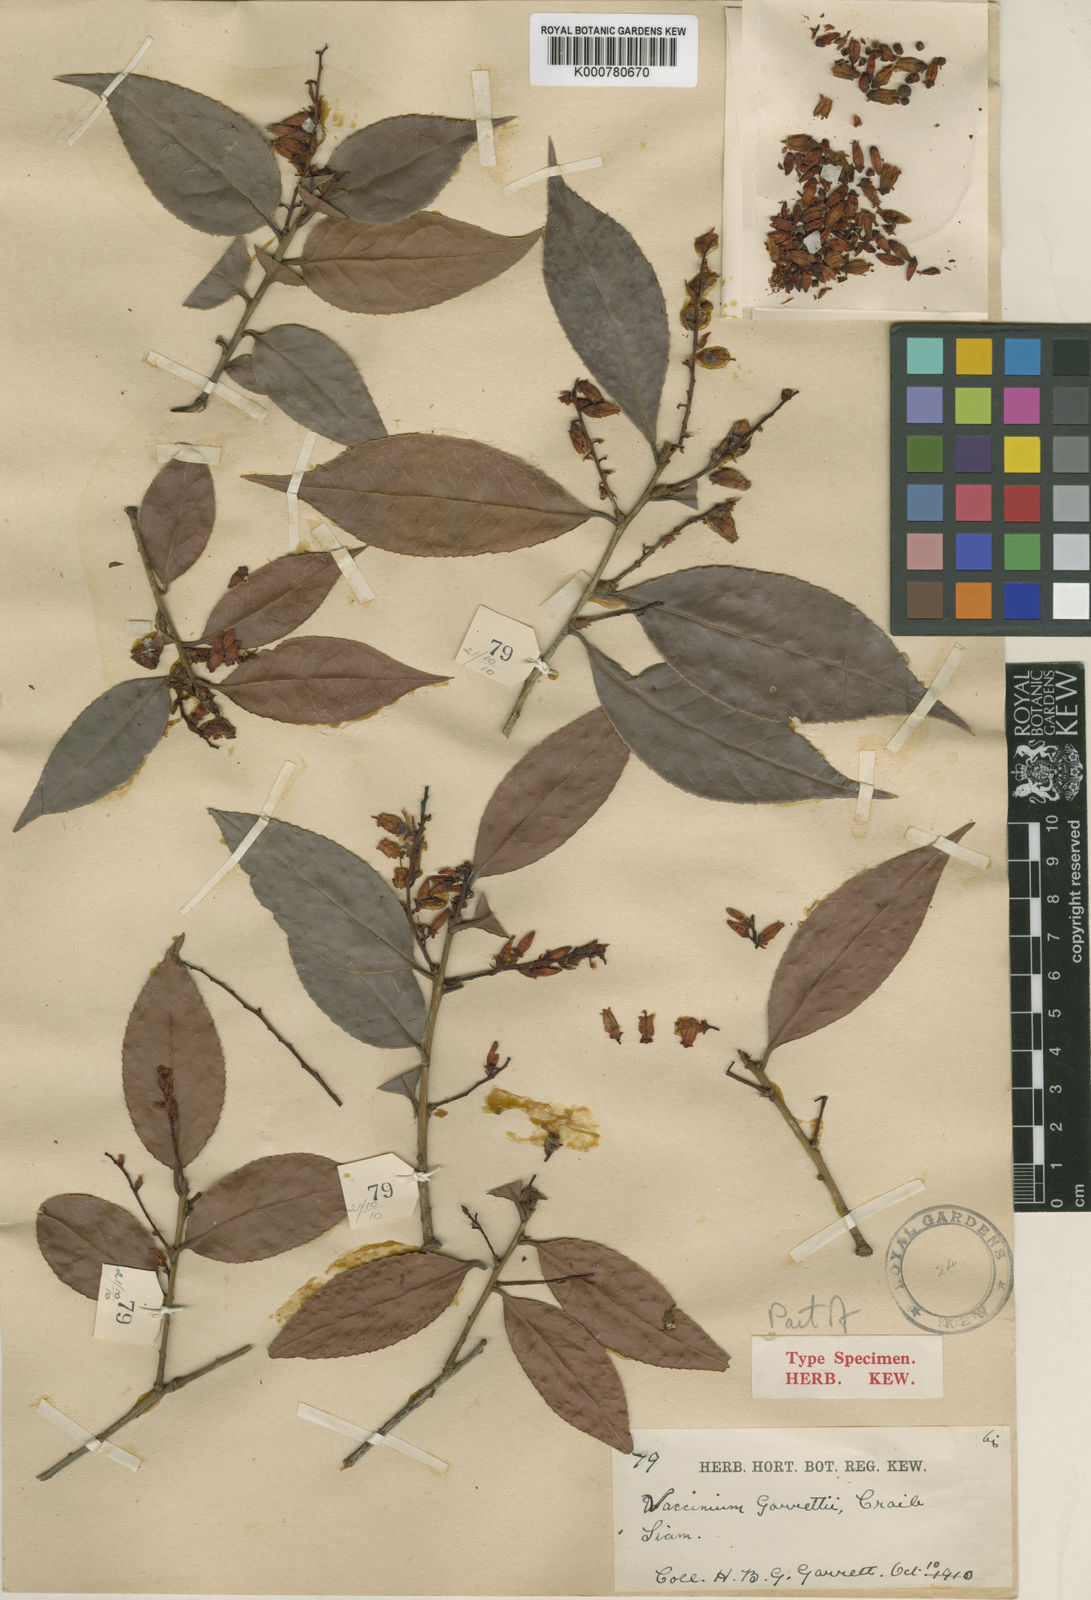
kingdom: Plantae
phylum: Tracheophyta
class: Magnoliopsida
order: Ericales
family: Ericaceae
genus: Vaccinium
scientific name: Vaccinium exaristatum
